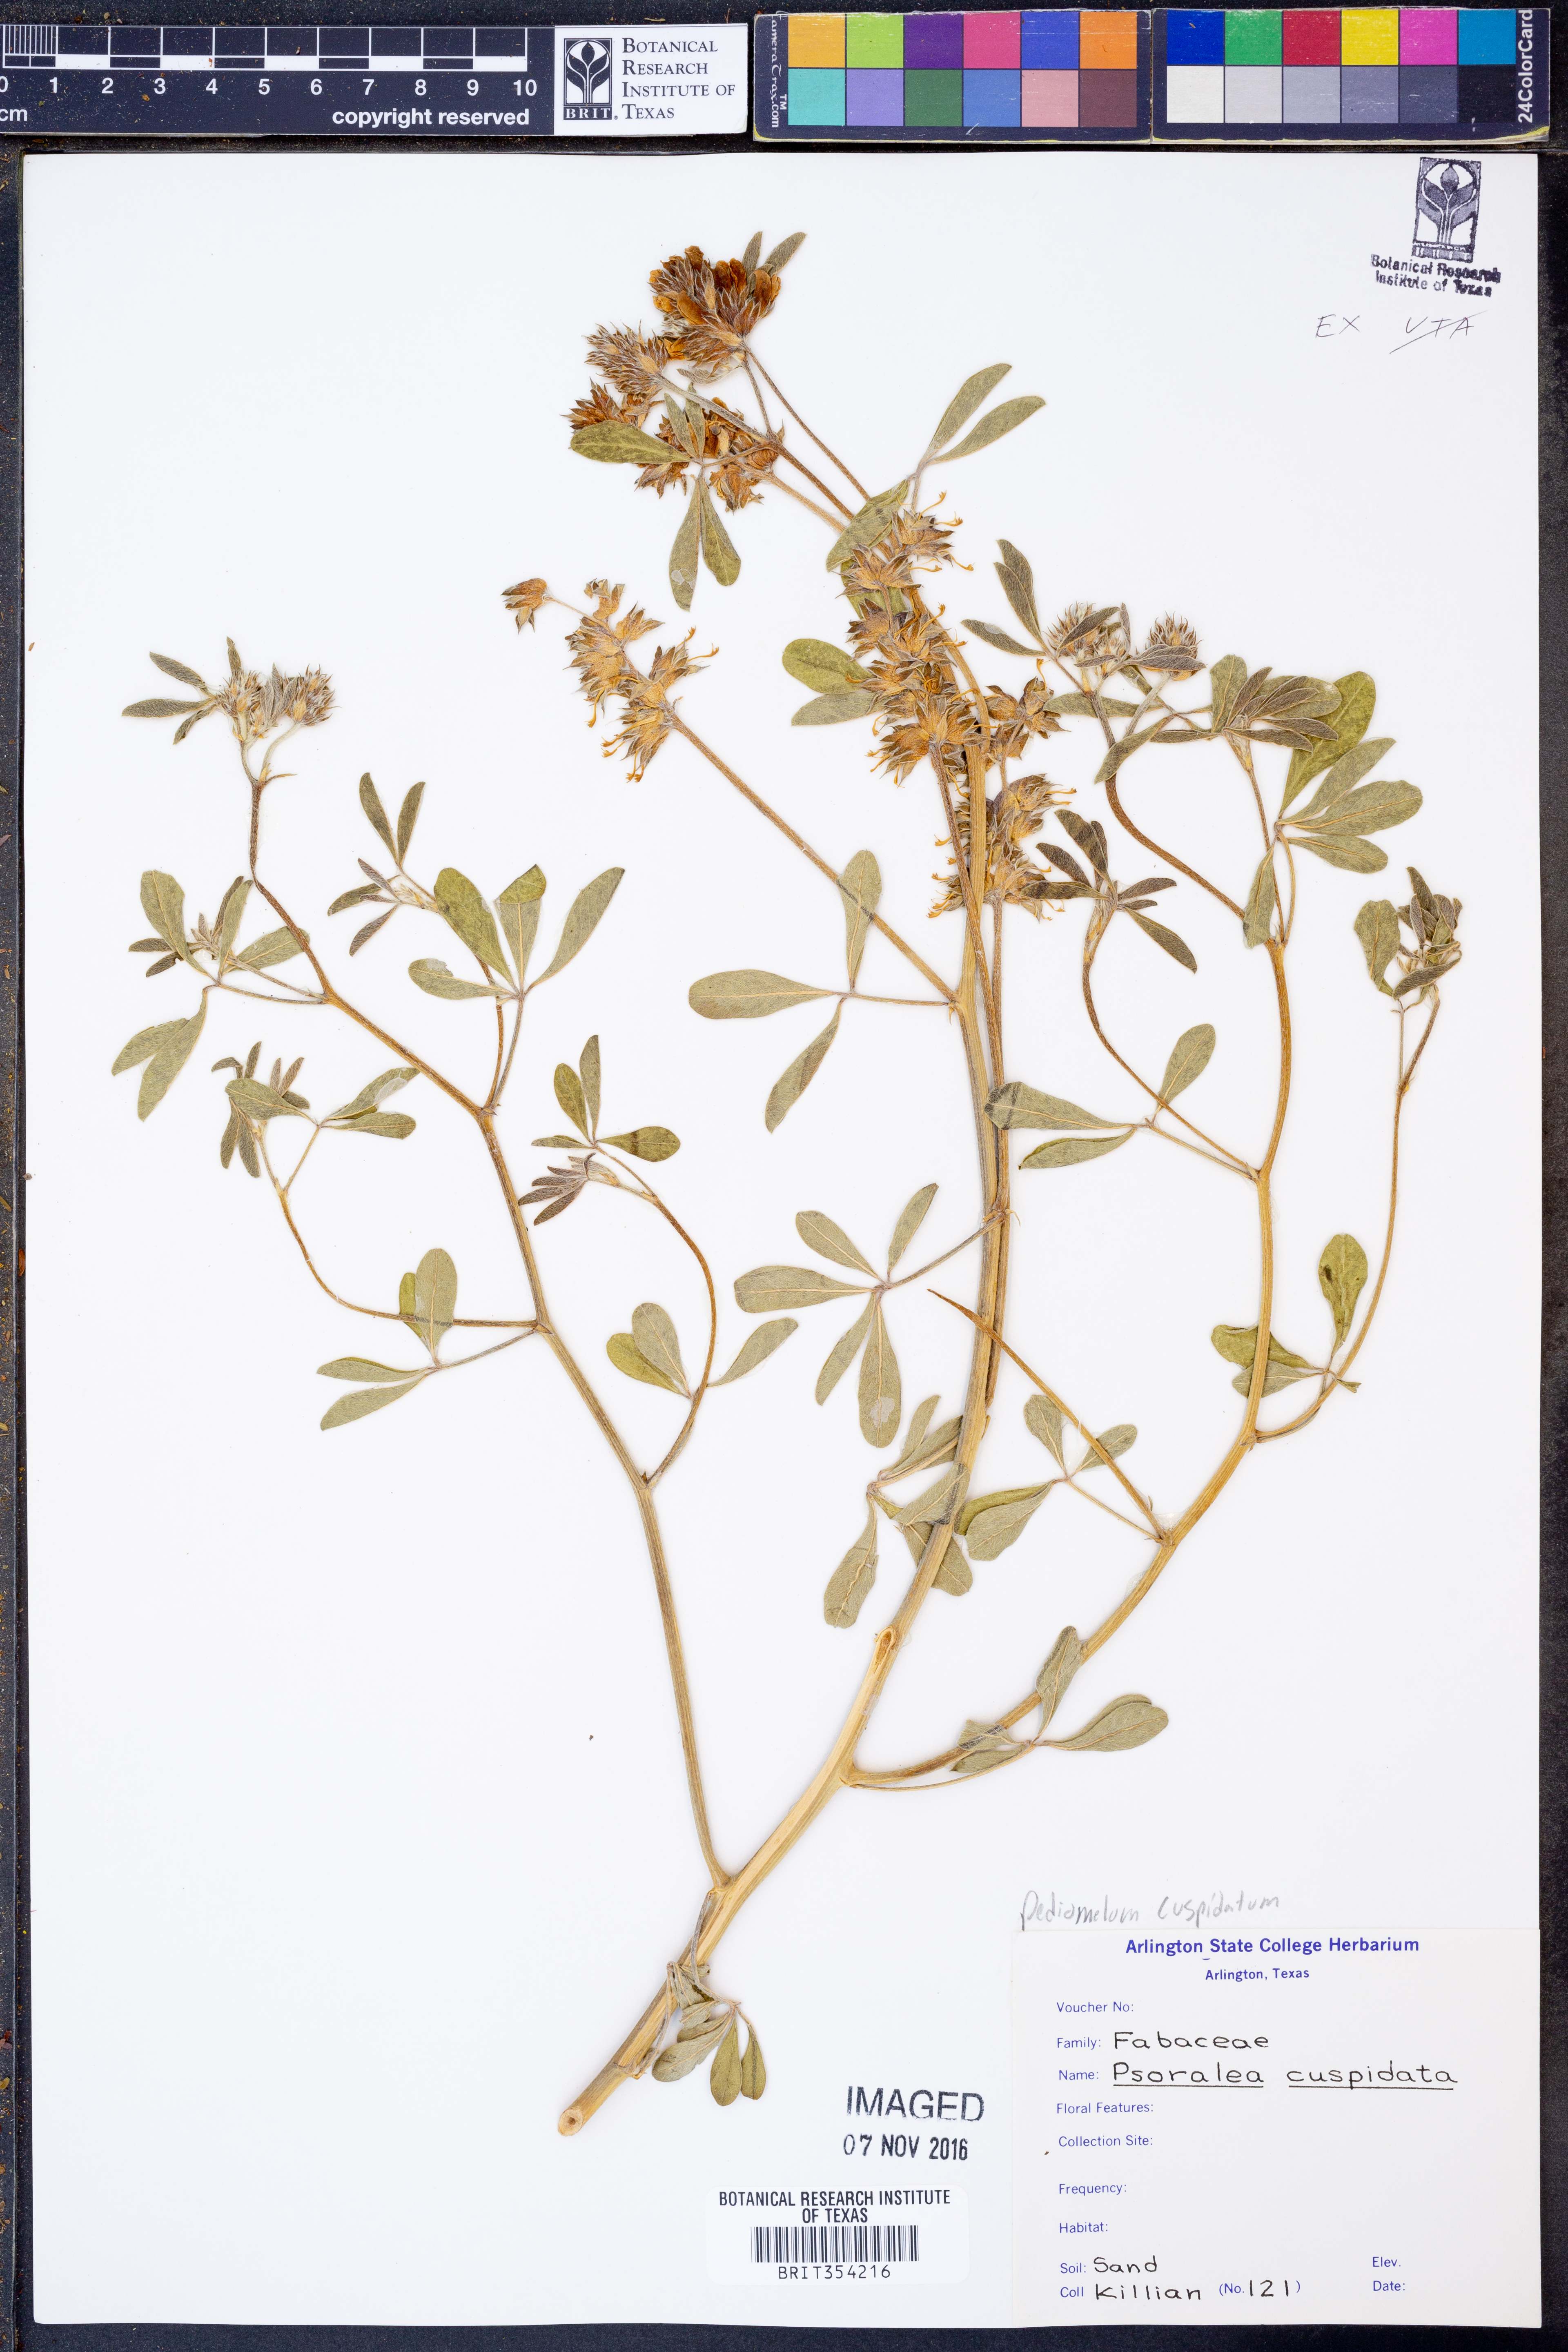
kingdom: Plantae
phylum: Tracheophyta
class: Magnoliopsida
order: Fabales
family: Fabaceae
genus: Pediomelum
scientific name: Pediomelum cuspidatum
